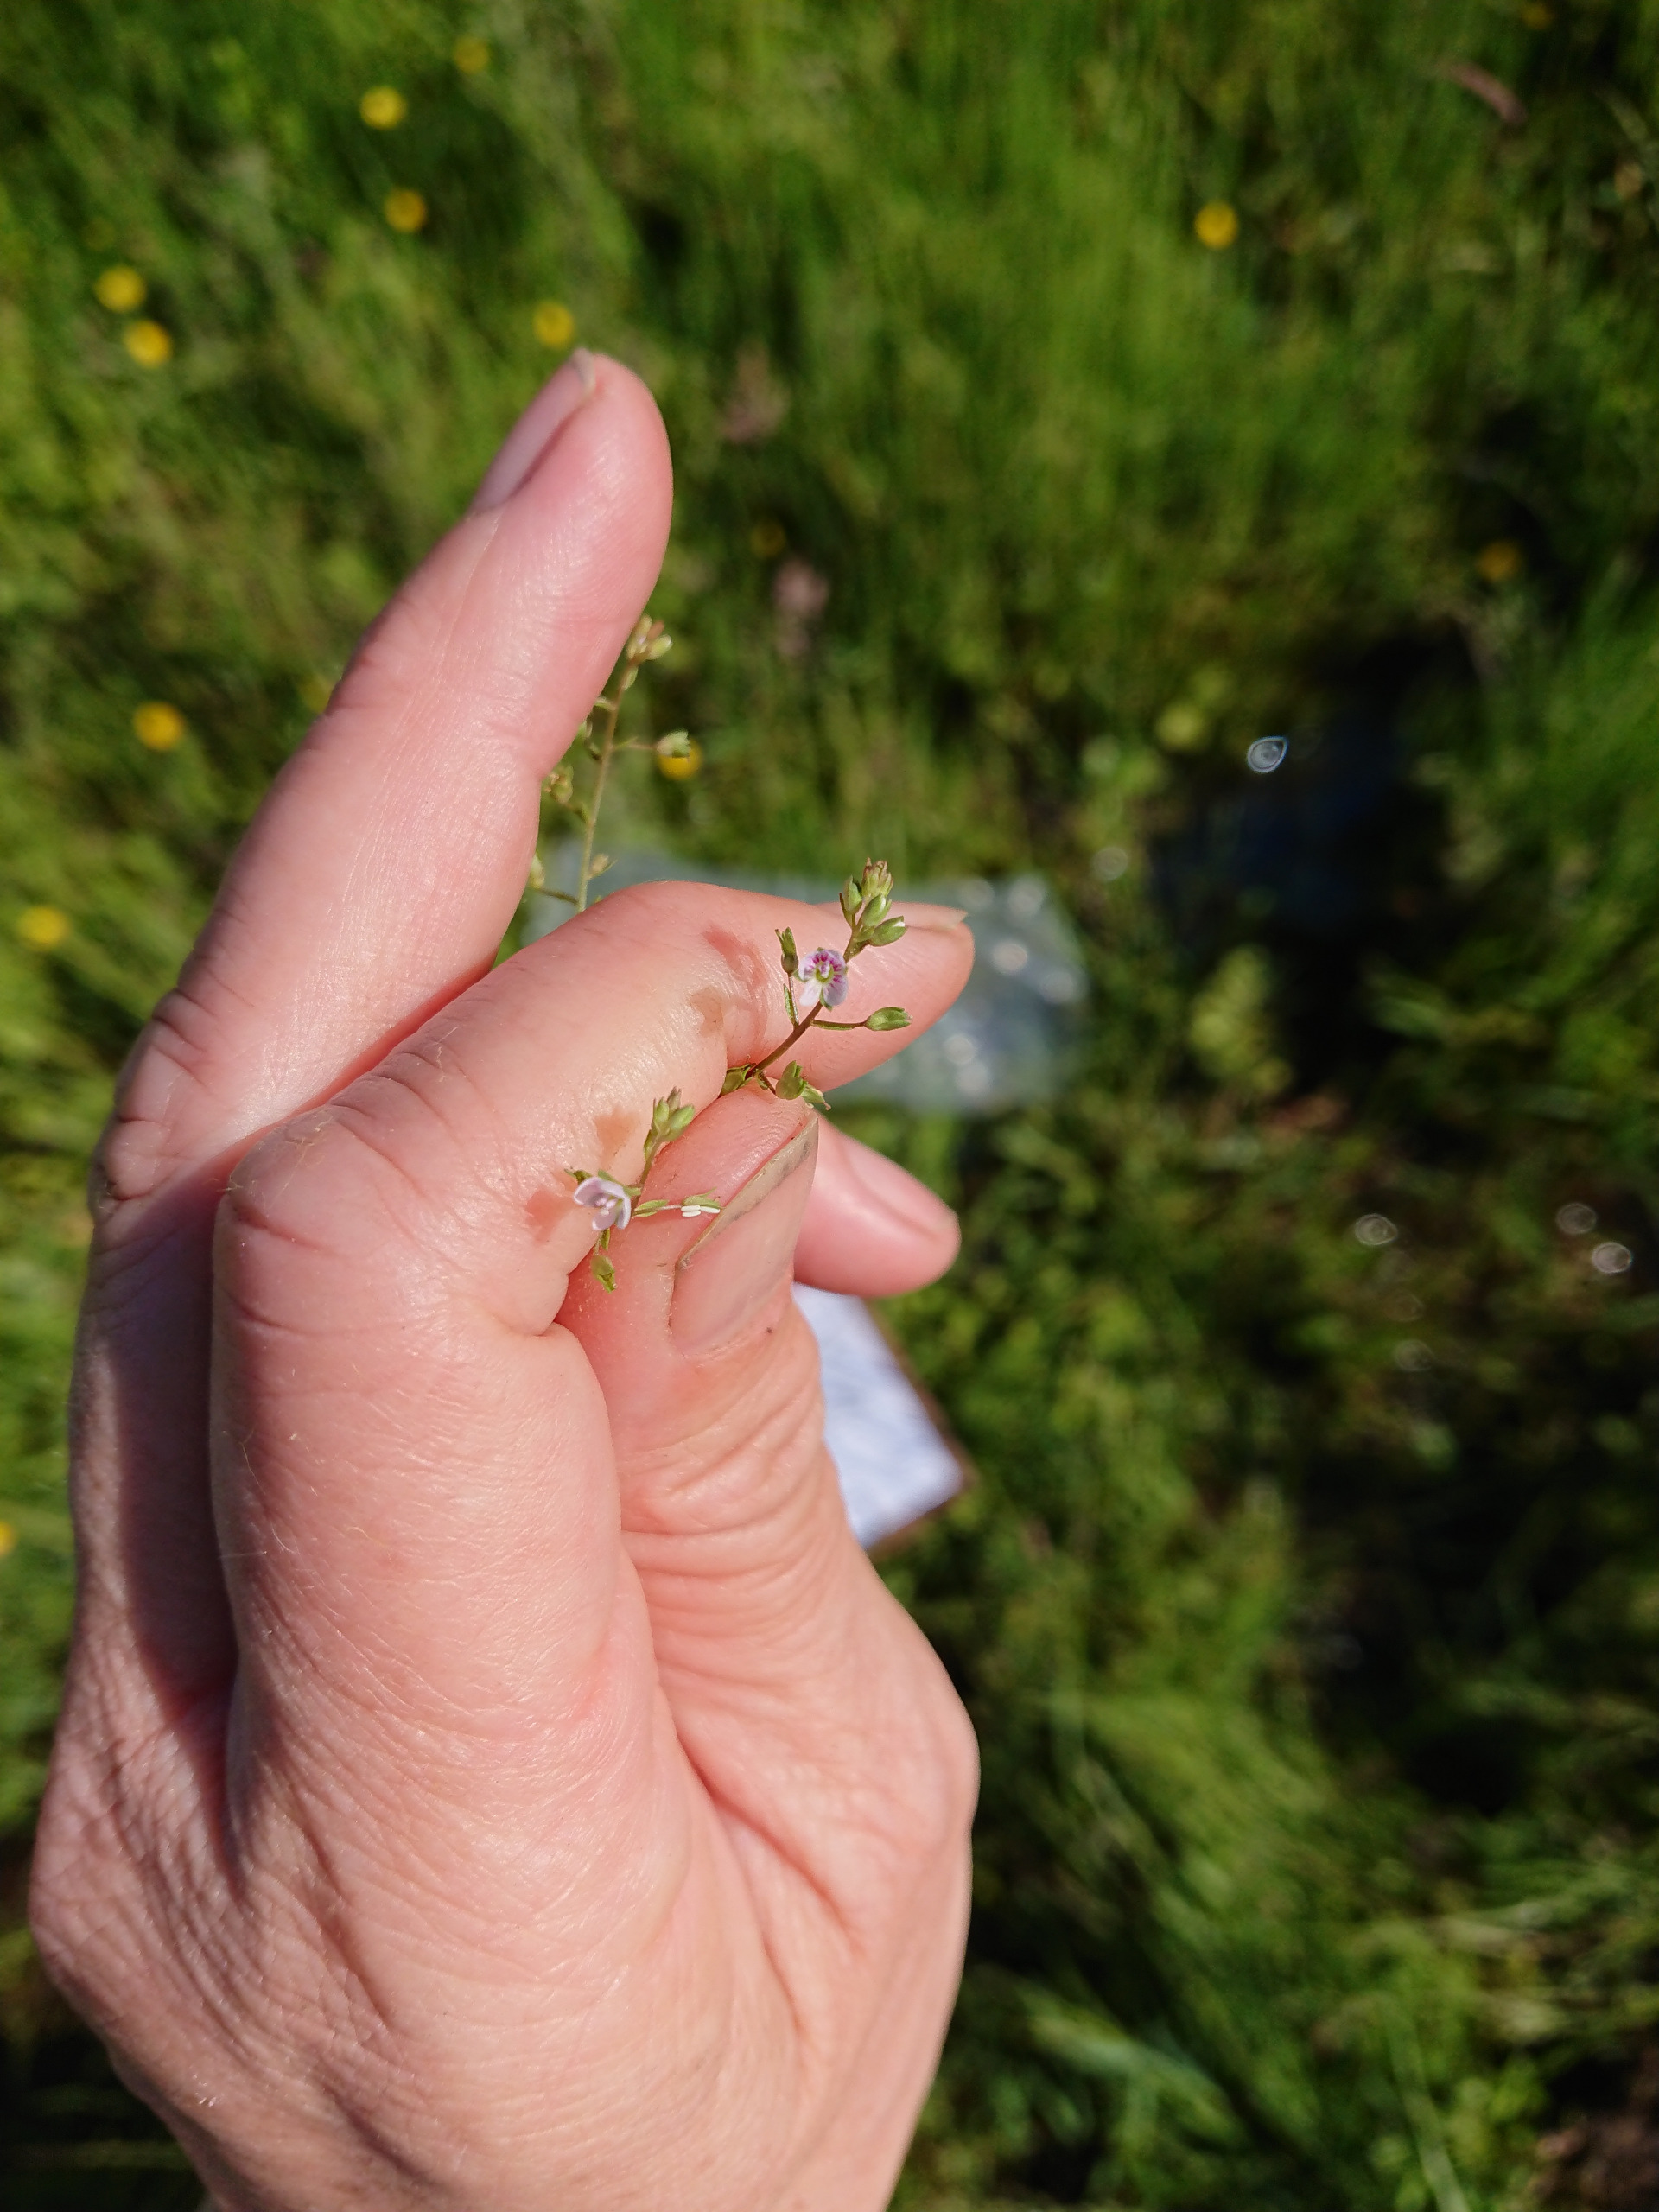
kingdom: Plantae
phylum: Tracheophyta
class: Magnoliopsida
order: Lamiales
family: Plantaginaceae
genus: Veronica
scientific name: Veronica catenata
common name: Vand-ærenpris
